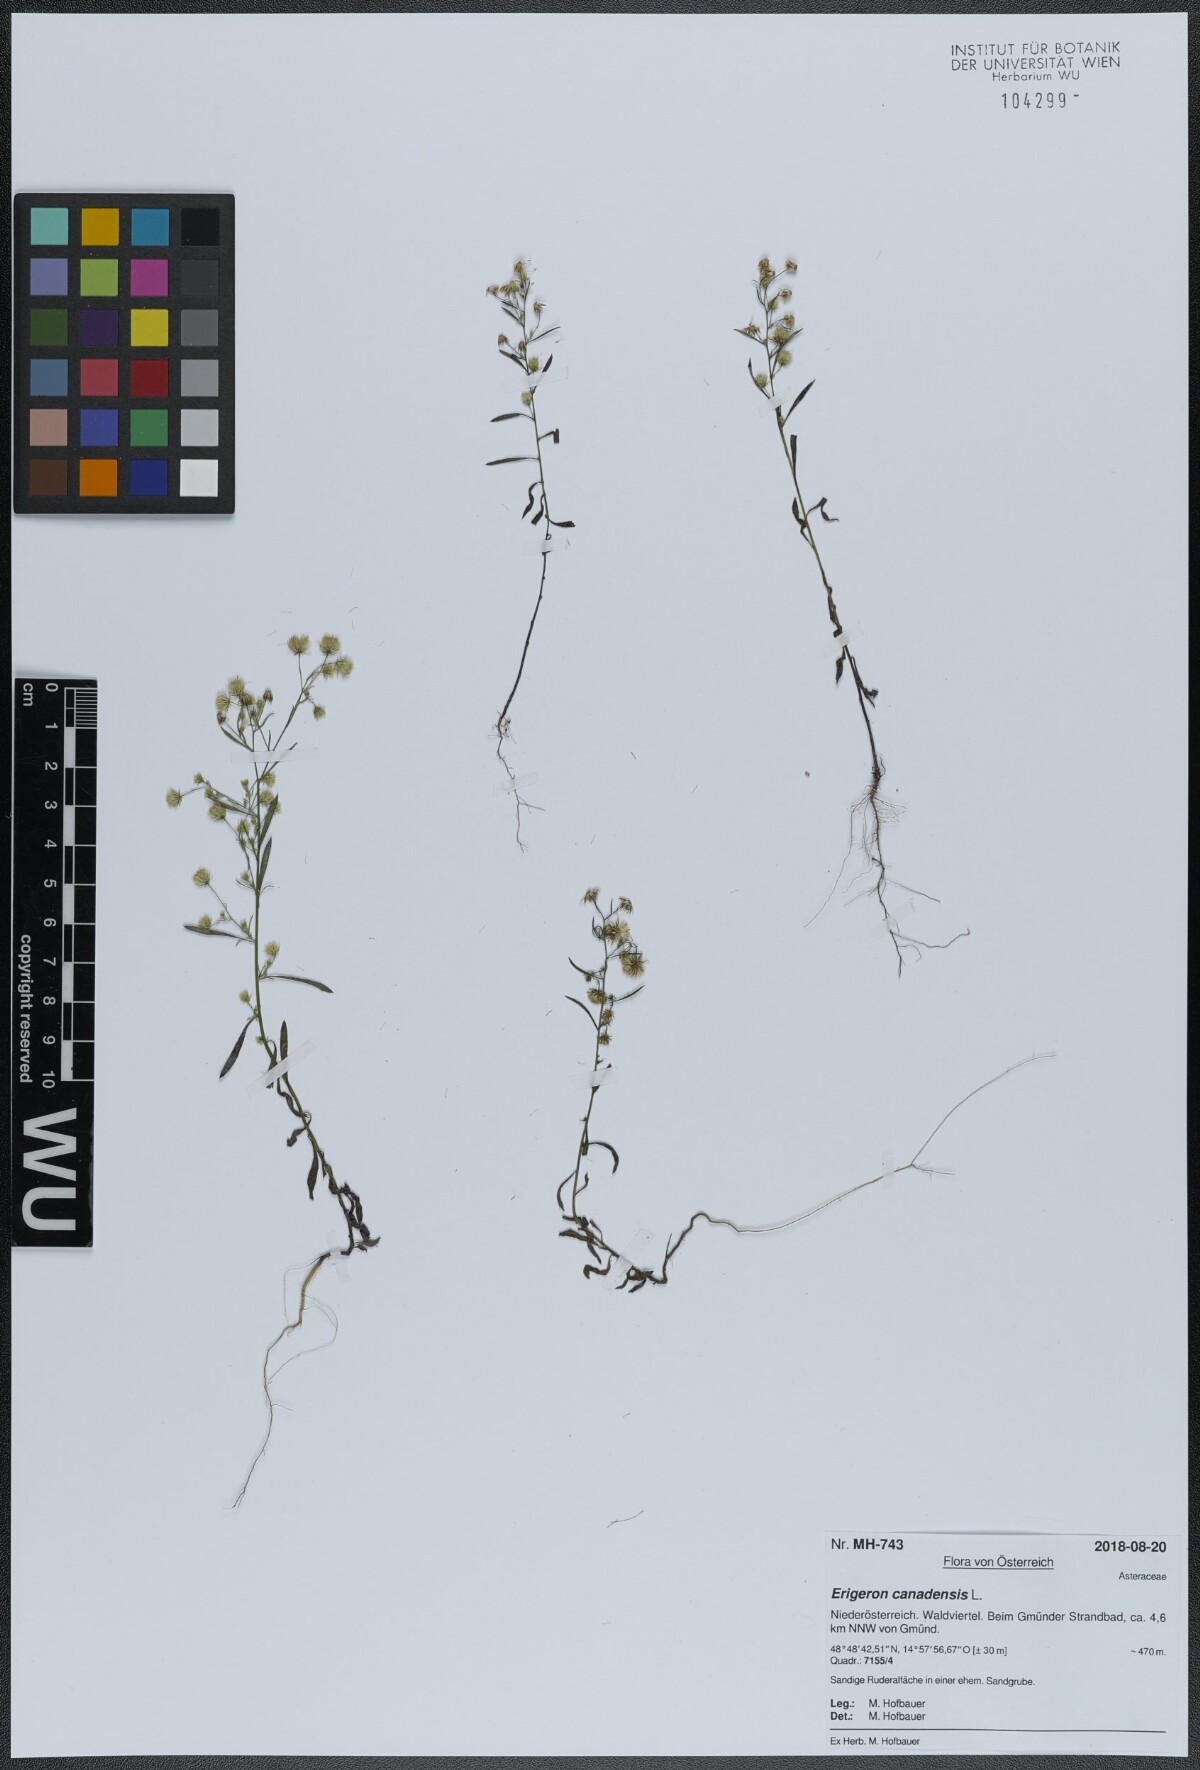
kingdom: Plantae
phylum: Tracheophyta
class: Magnoliopsida
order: Asterales
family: Asteraceae
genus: Erigeron
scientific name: Erigeron canadensis
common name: Canadian fleabane
